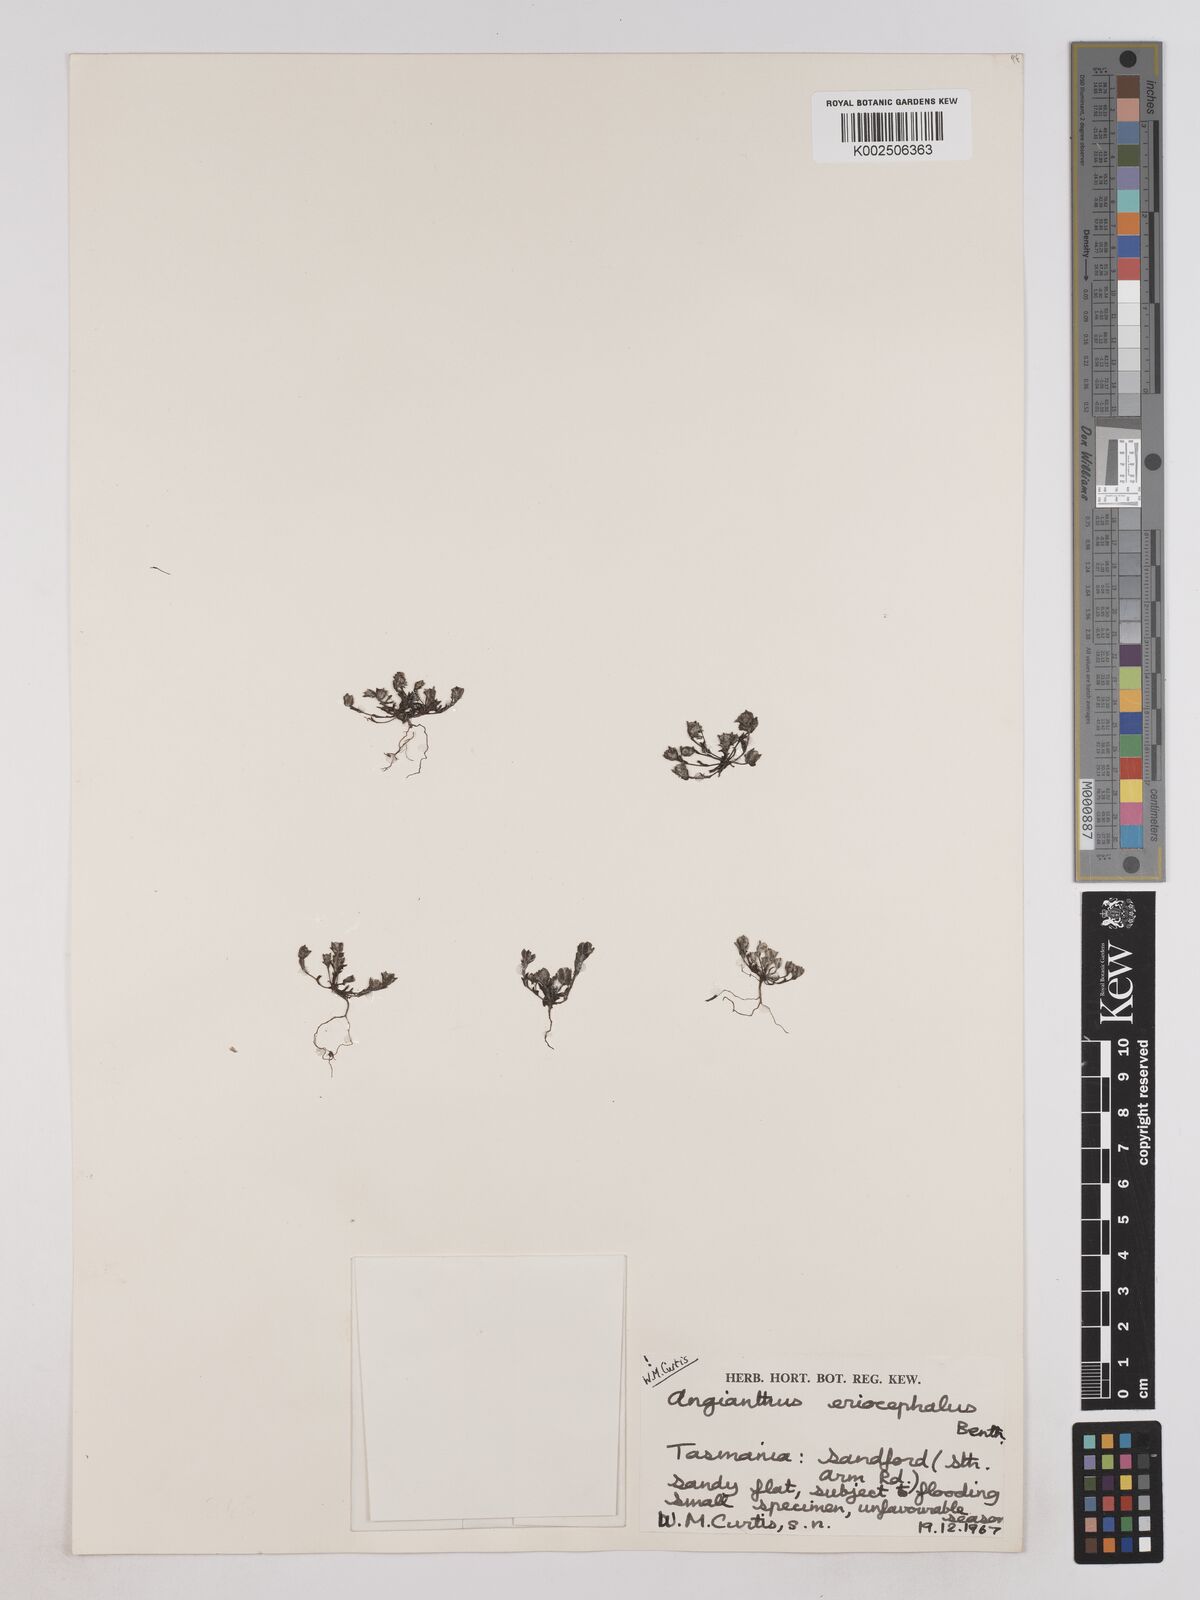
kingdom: Plantae
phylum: Tracheophyta
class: Magnoliopsida
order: Asterales
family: Asteraceae
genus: Angianthus
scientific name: Angianthus preissianus
